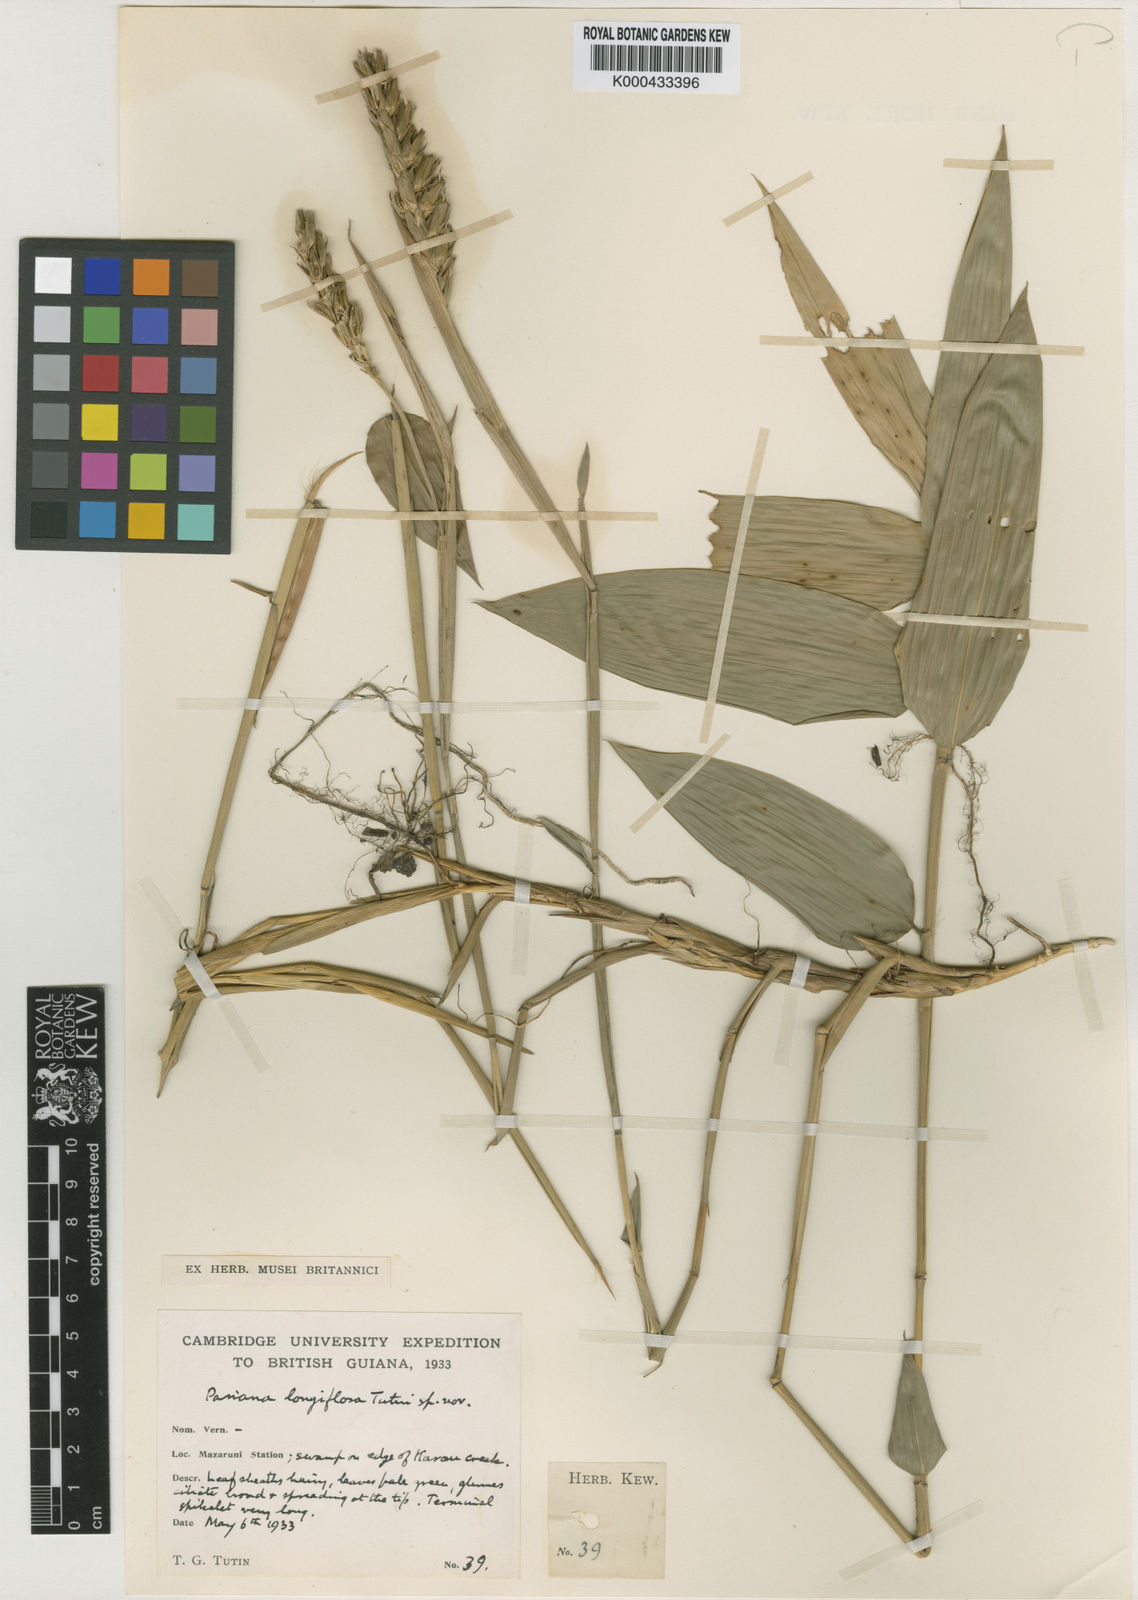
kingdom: Plantae
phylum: Tracheophyta
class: Liliopsida
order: Poales
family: Poaceae
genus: Pariana
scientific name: Pariana radiciflora
